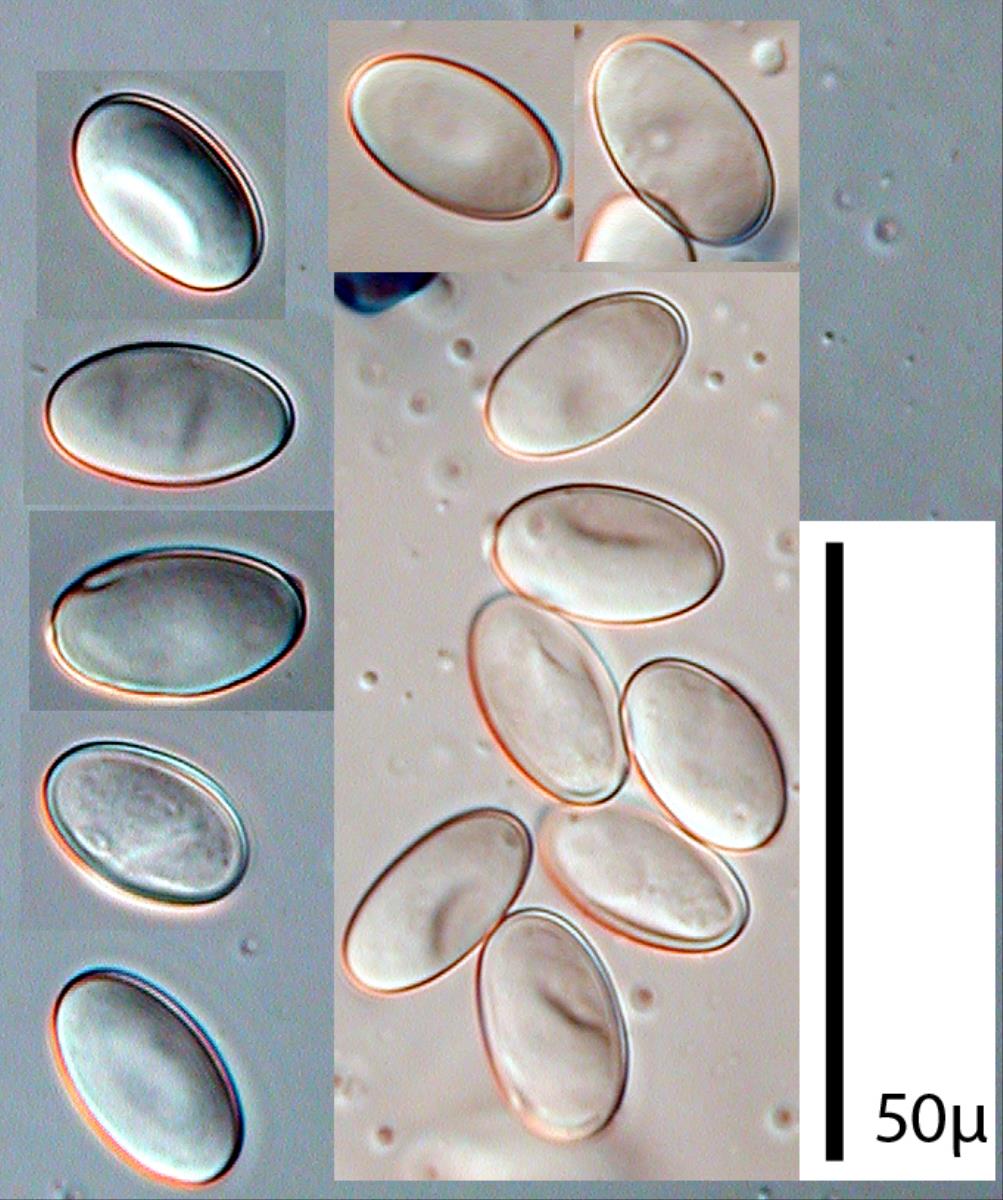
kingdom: Fungi
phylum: Ascomycota
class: Pezizomycetes
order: Pezizales
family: Pezizaceae
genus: Peziza
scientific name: Peziza austrogeaster
